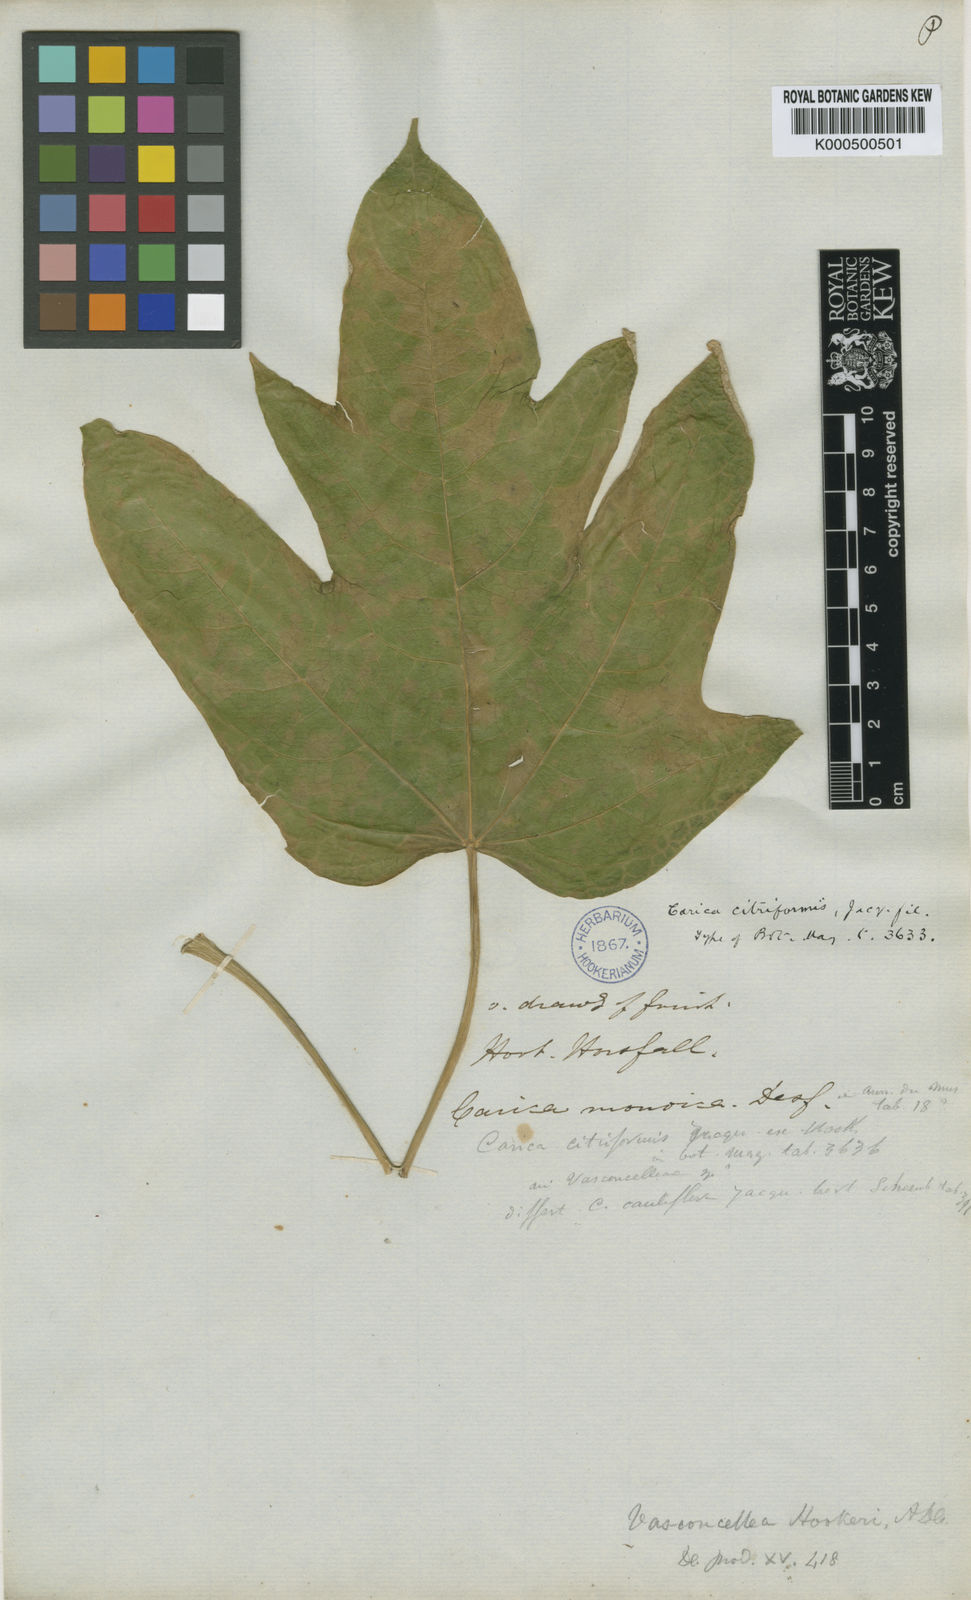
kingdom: Plantae
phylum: Tracheophyta
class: Magnoliopsida
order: Brassicales
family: Caricaceae
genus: Vasconcellea
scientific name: Vasconcellea monoica
